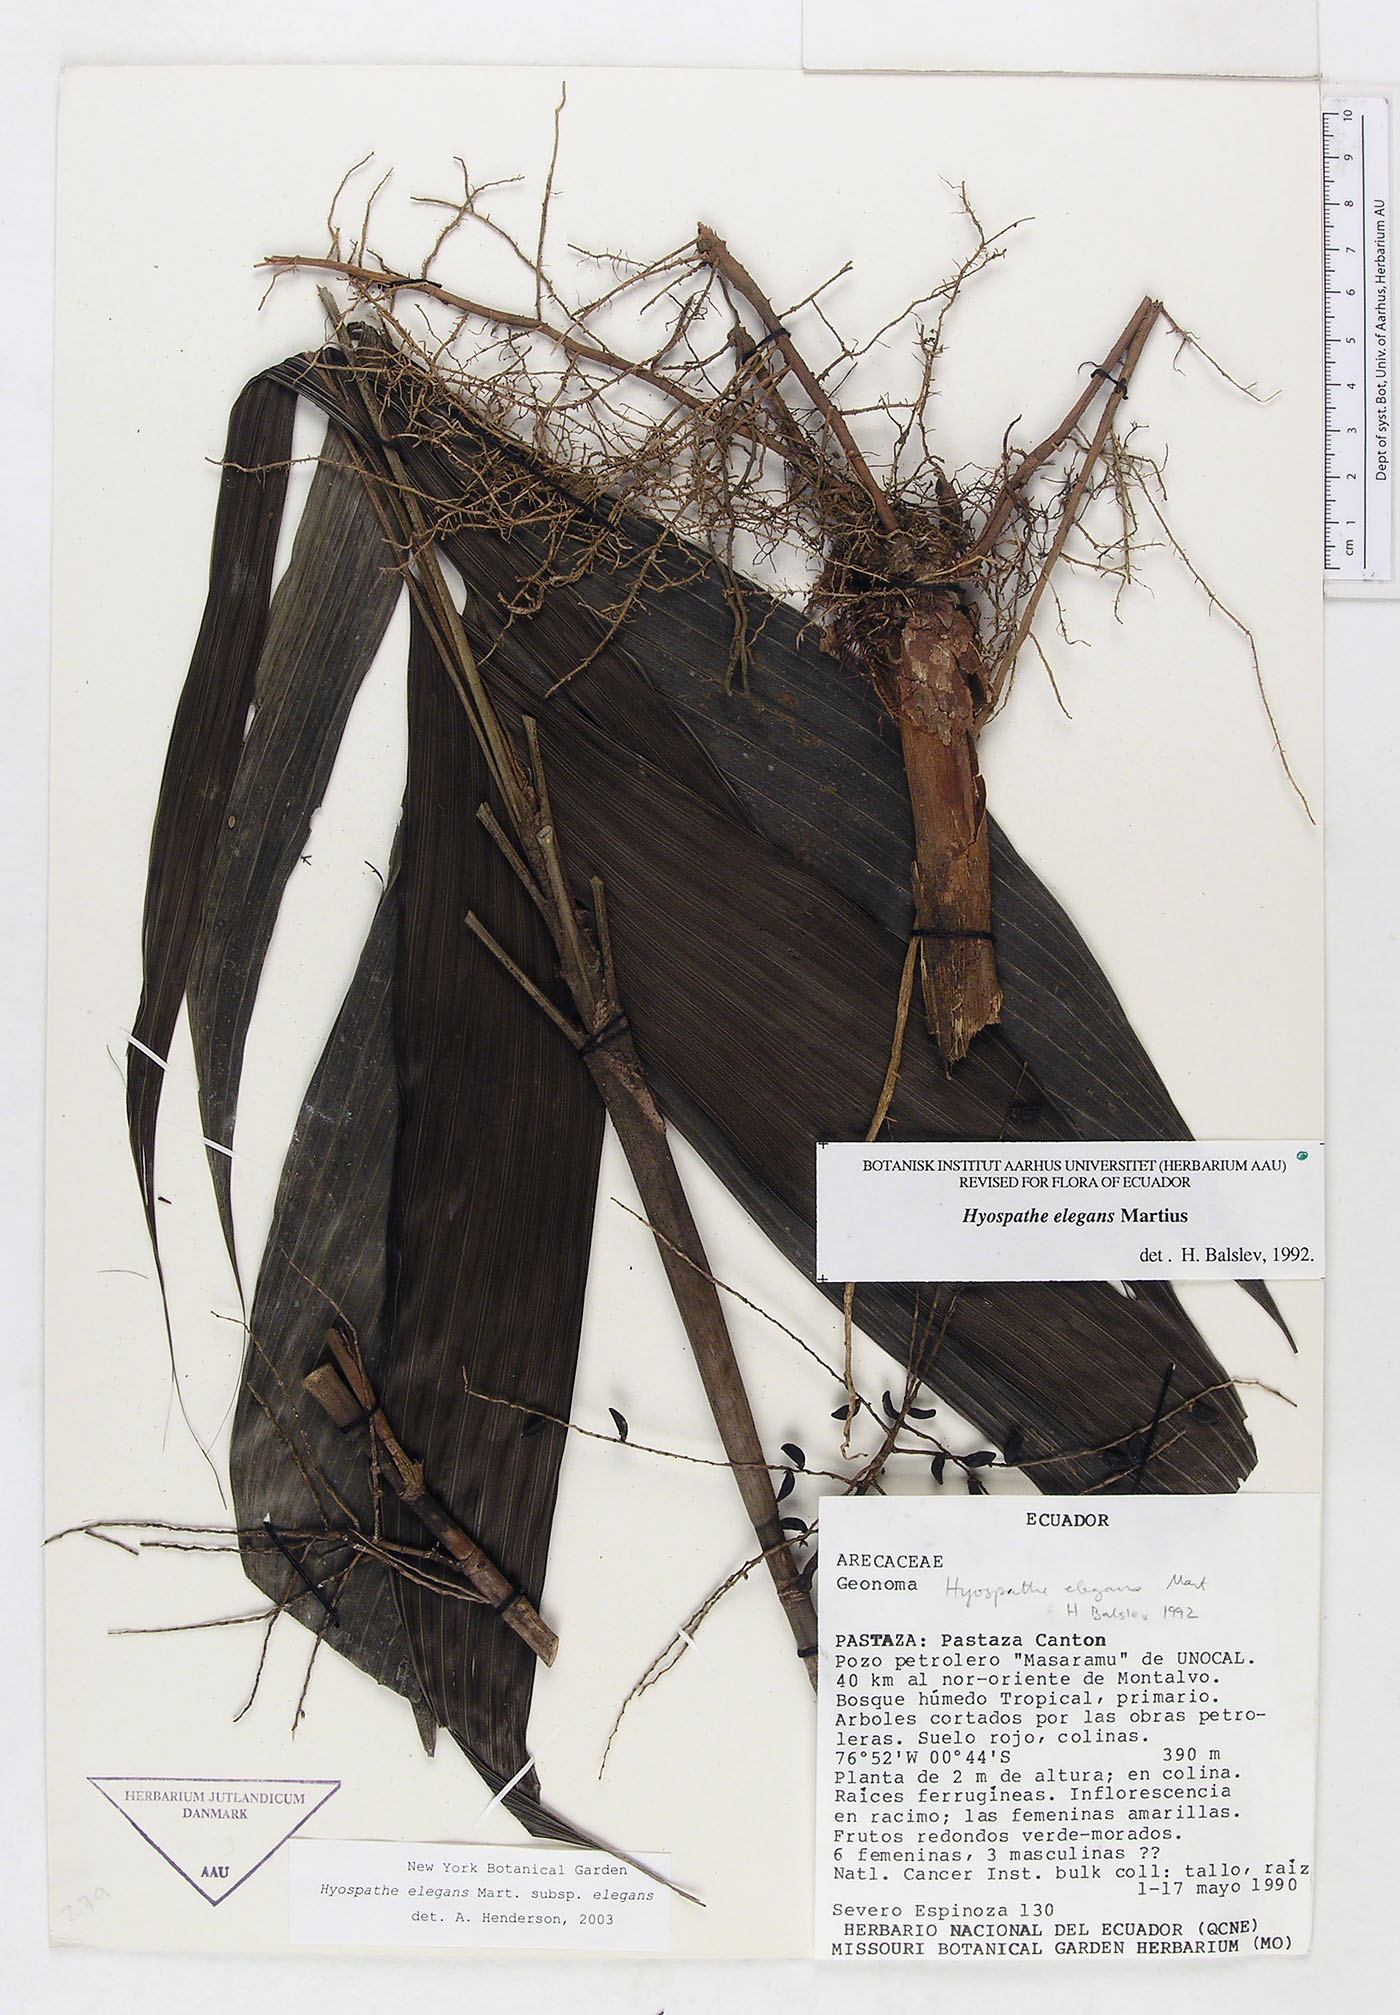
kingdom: Plantae
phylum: Tracheophyta
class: Liliopsida
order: Arecales
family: Arecaceae
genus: Hyospathe
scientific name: Hyospathe elegans
